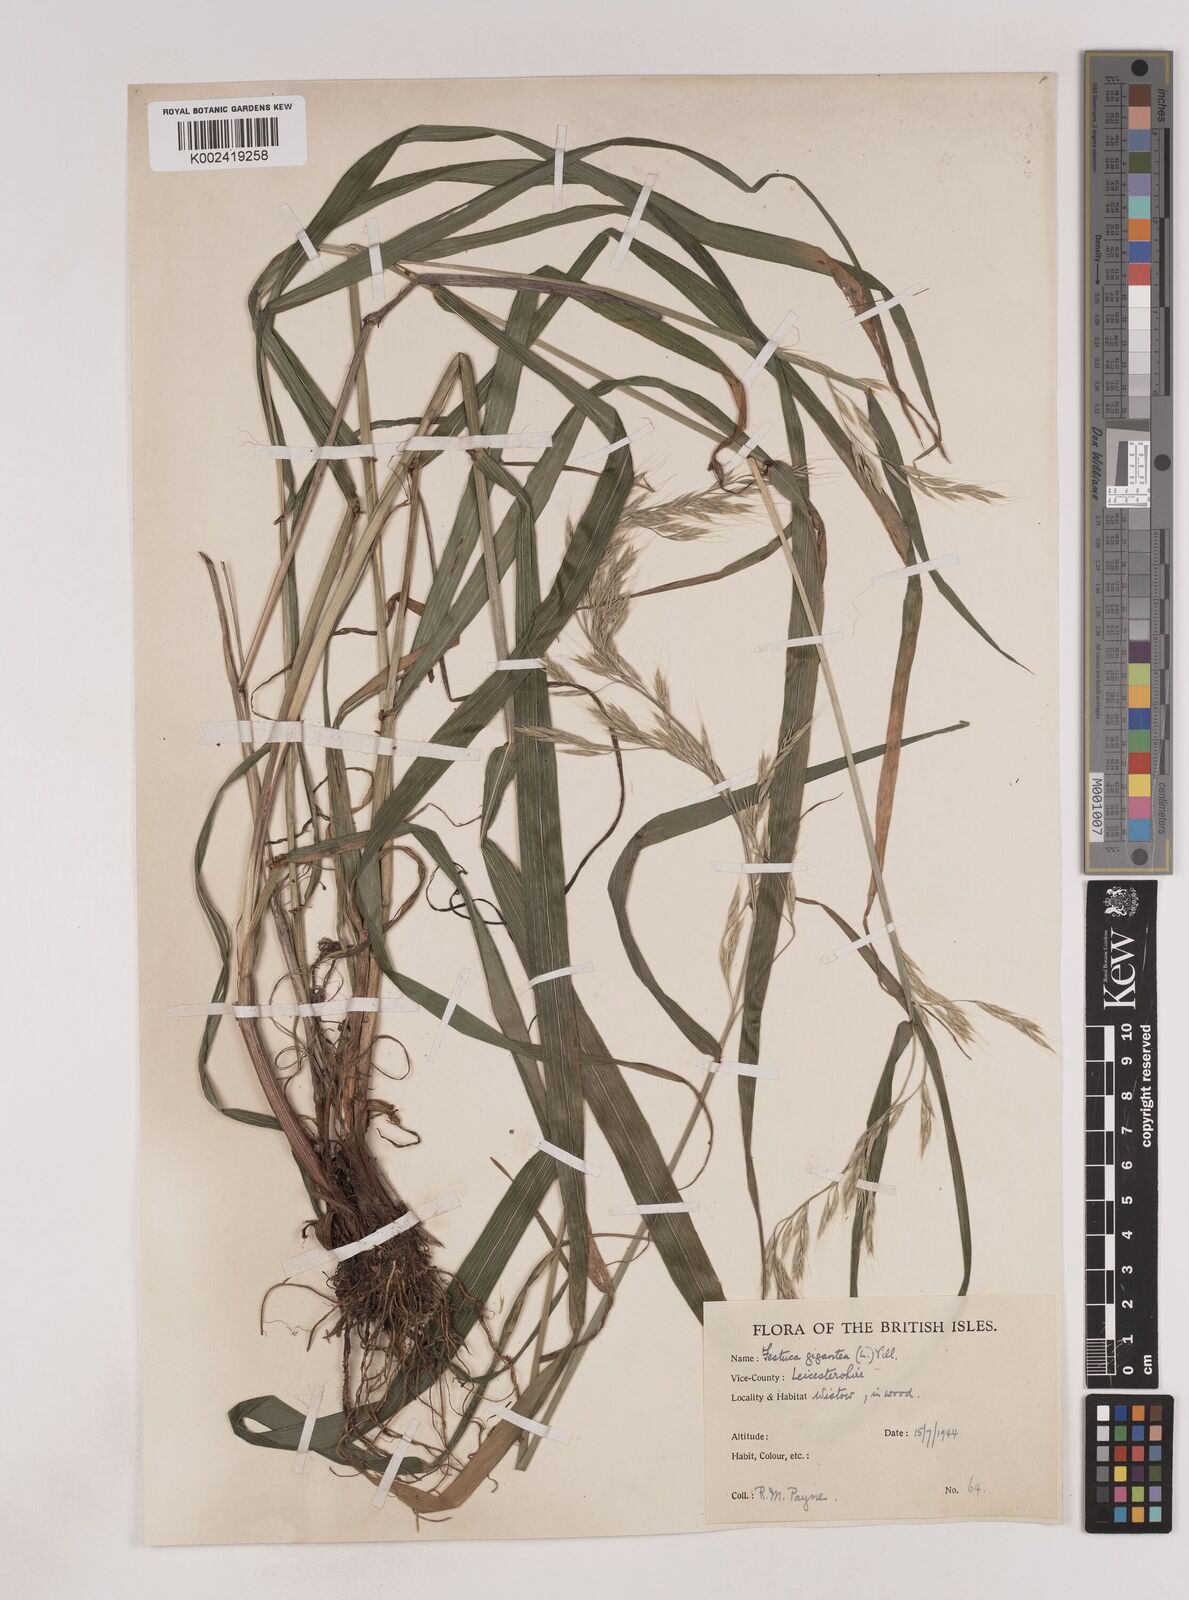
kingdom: Plantae
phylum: Tracheophyta
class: Liliopsida
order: Poales
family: Poaceae
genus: Lolium
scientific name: Lolium giganteum
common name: Giant fescue
